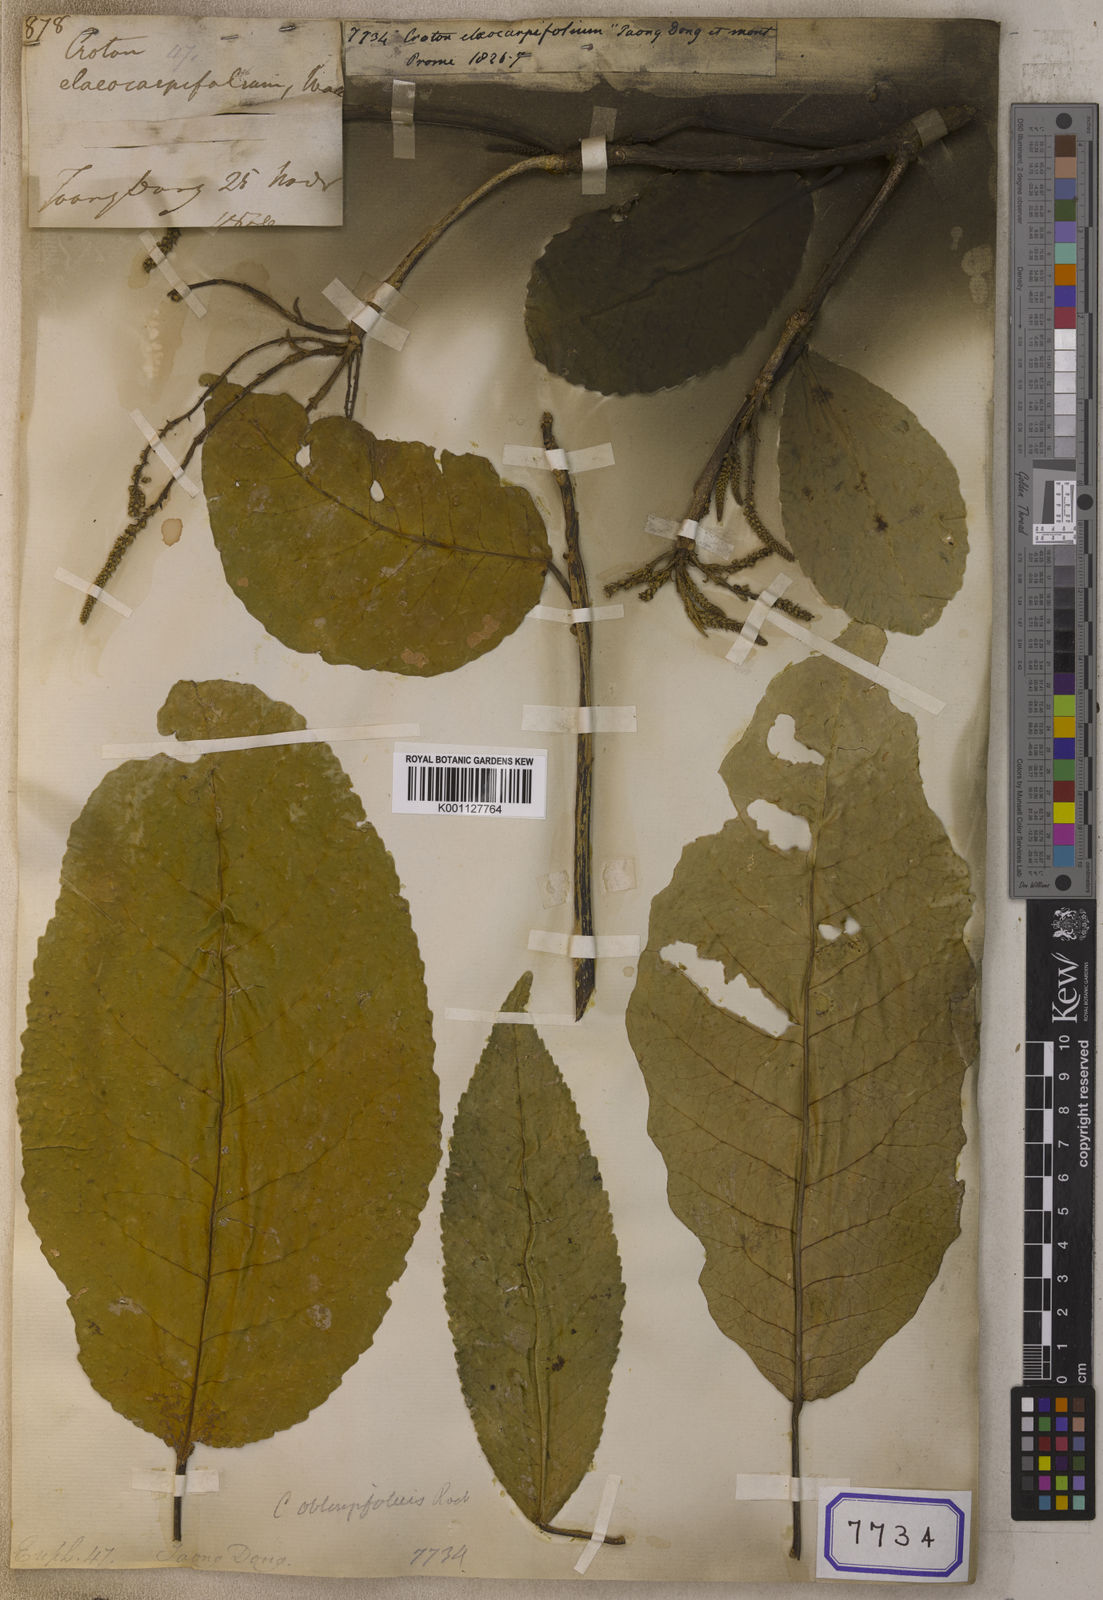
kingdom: Plantae
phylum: Tracheophyta
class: Magnoliopsida
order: Malpighiales
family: Euphorbiaceae
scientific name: Euphorbiaceae
